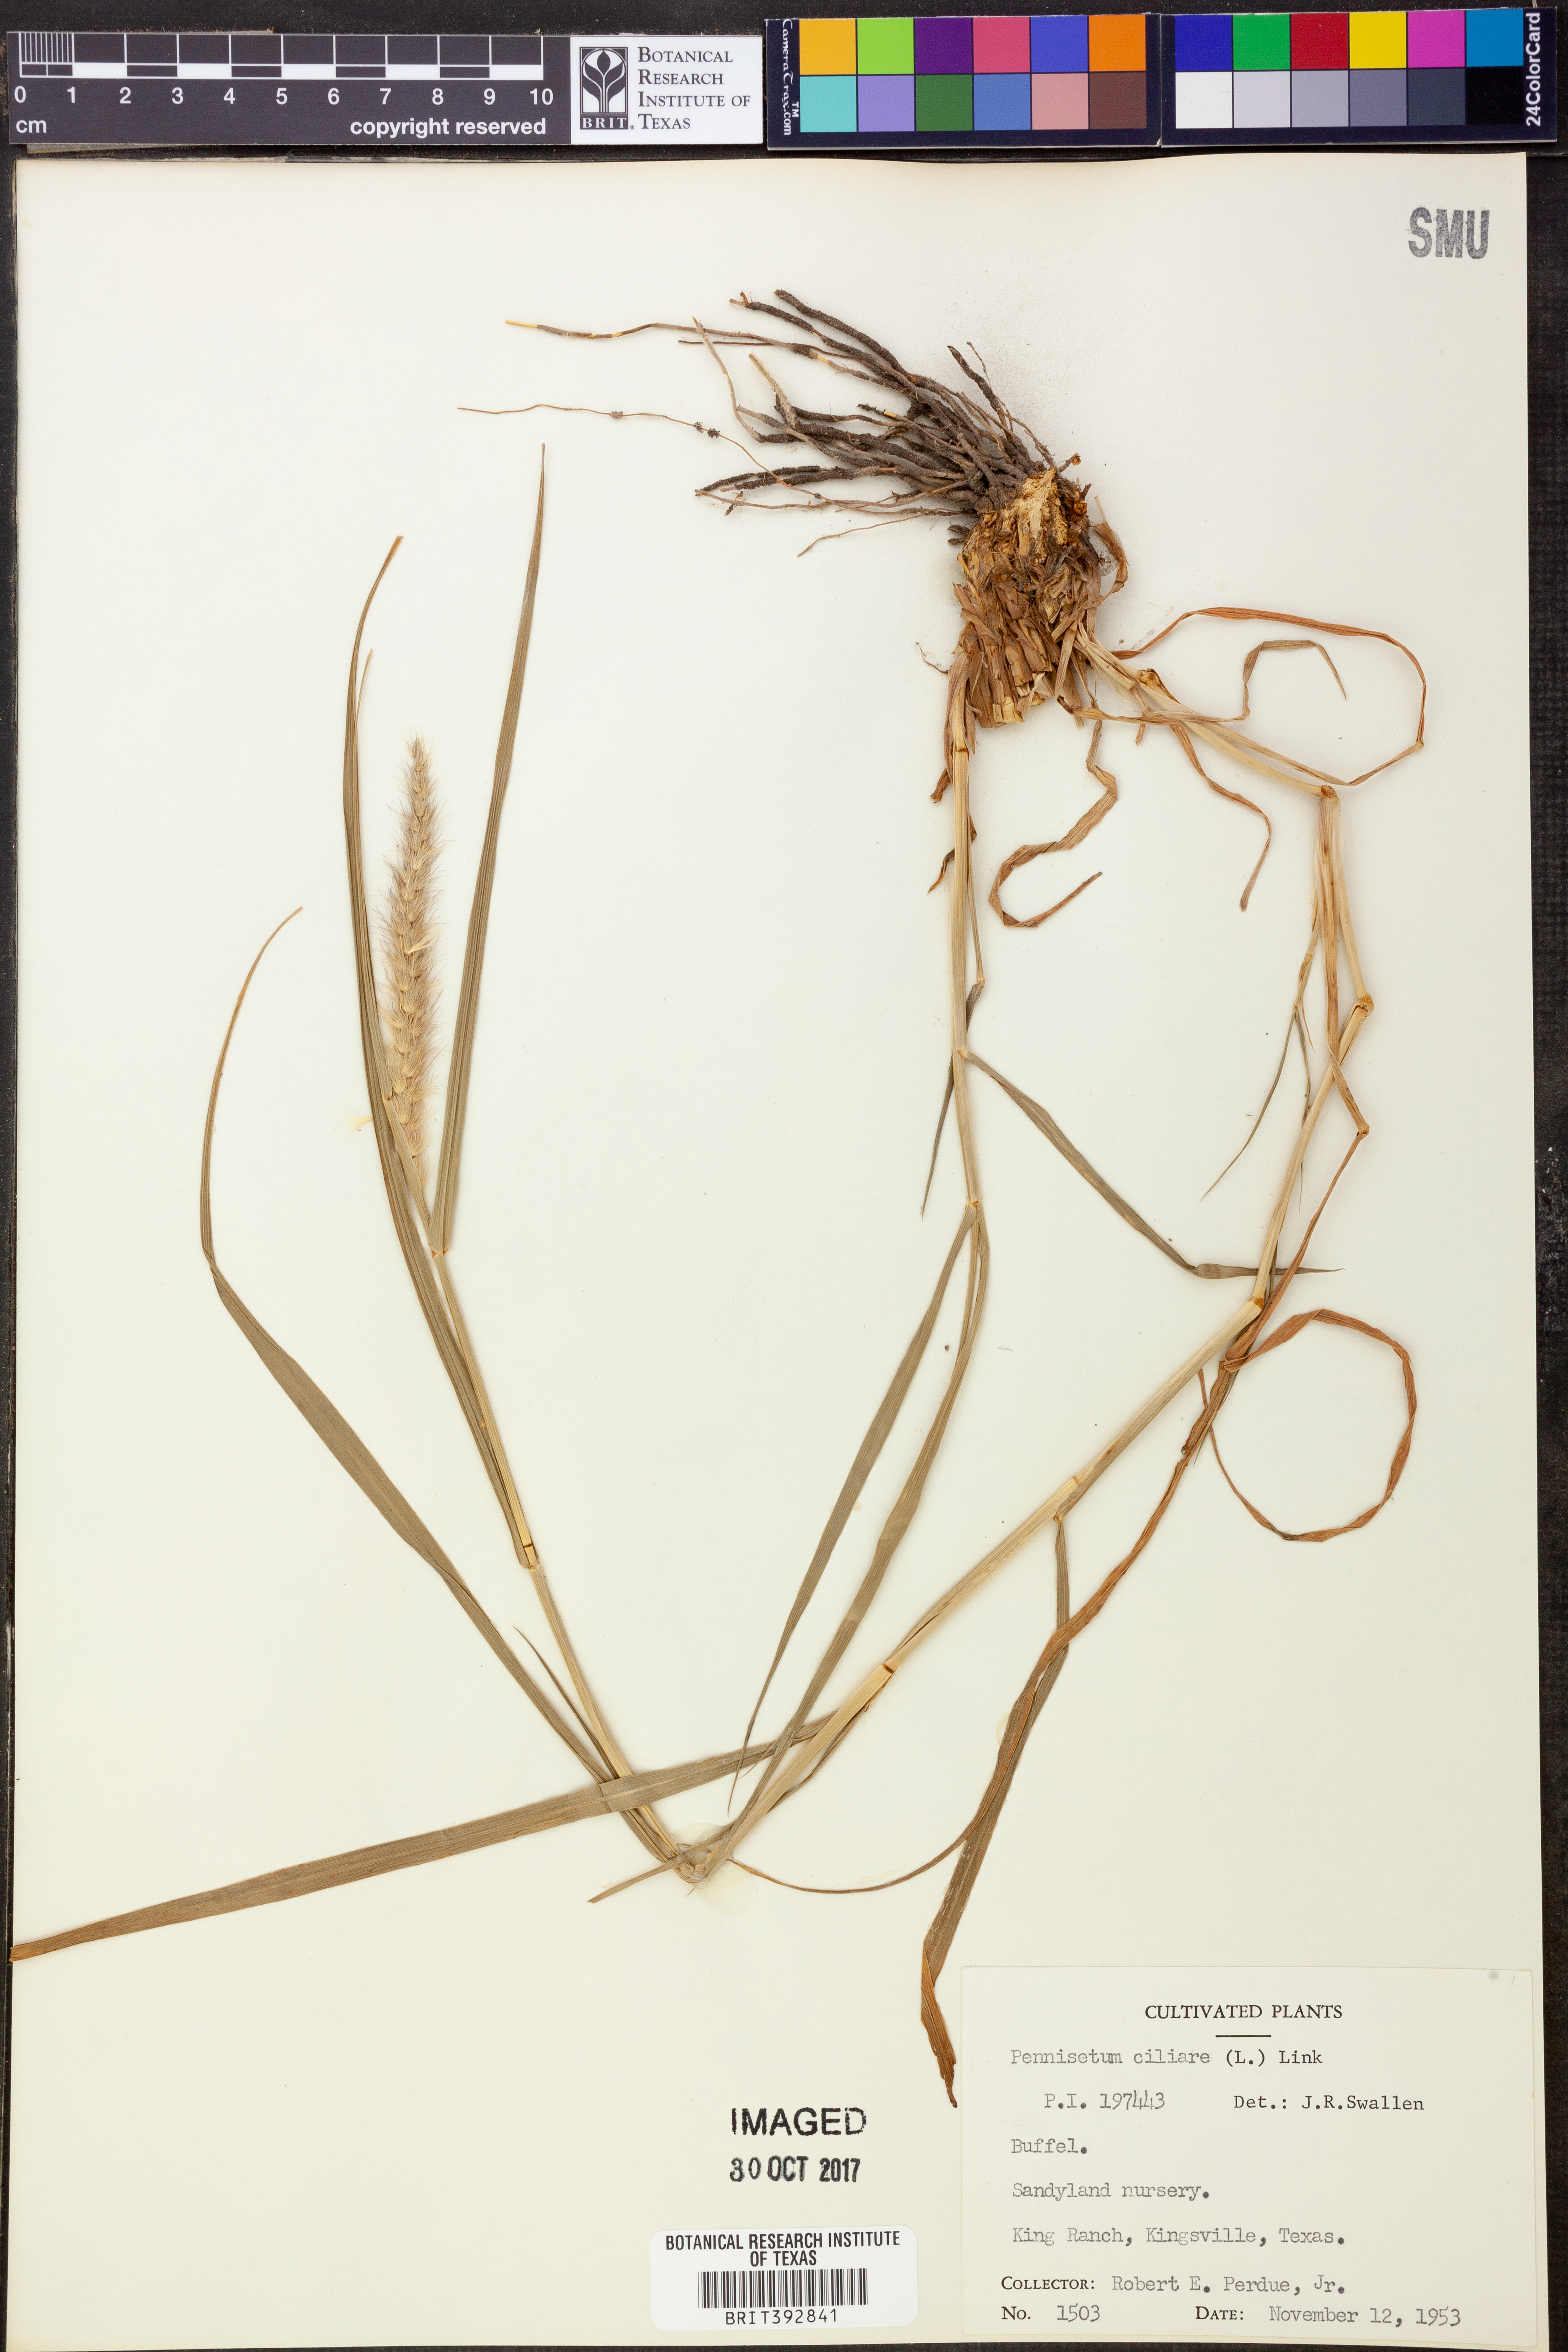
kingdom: Plantae
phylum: Tracheophyta
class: Liliopsida
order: Poales
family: Poaceae
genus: Cenchrus
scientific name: Cenchrus ciliaris
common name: Buffelgrass
